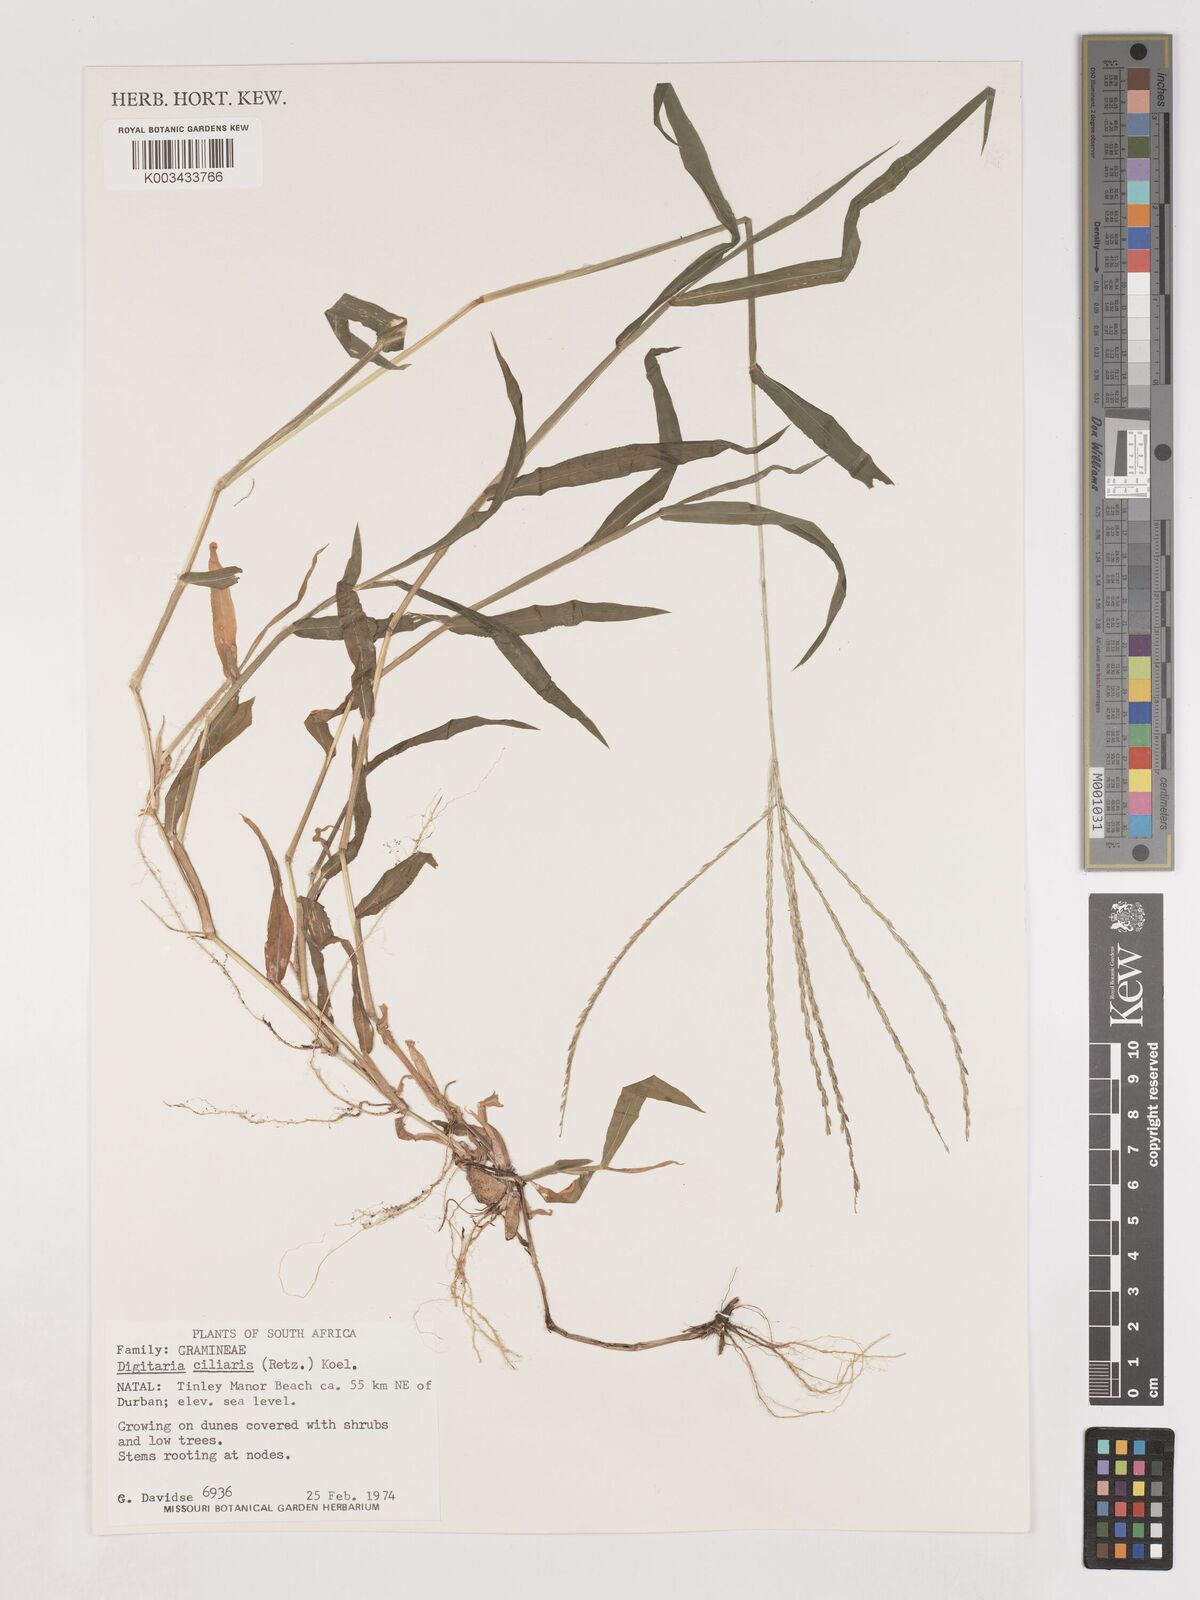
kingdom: Plantae
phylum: Tracheophyta
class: Liliopsida
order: Poales
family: Poaceae
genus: Digitaria
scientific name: Digitaria ciliaris
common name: Tropical finger-grass
